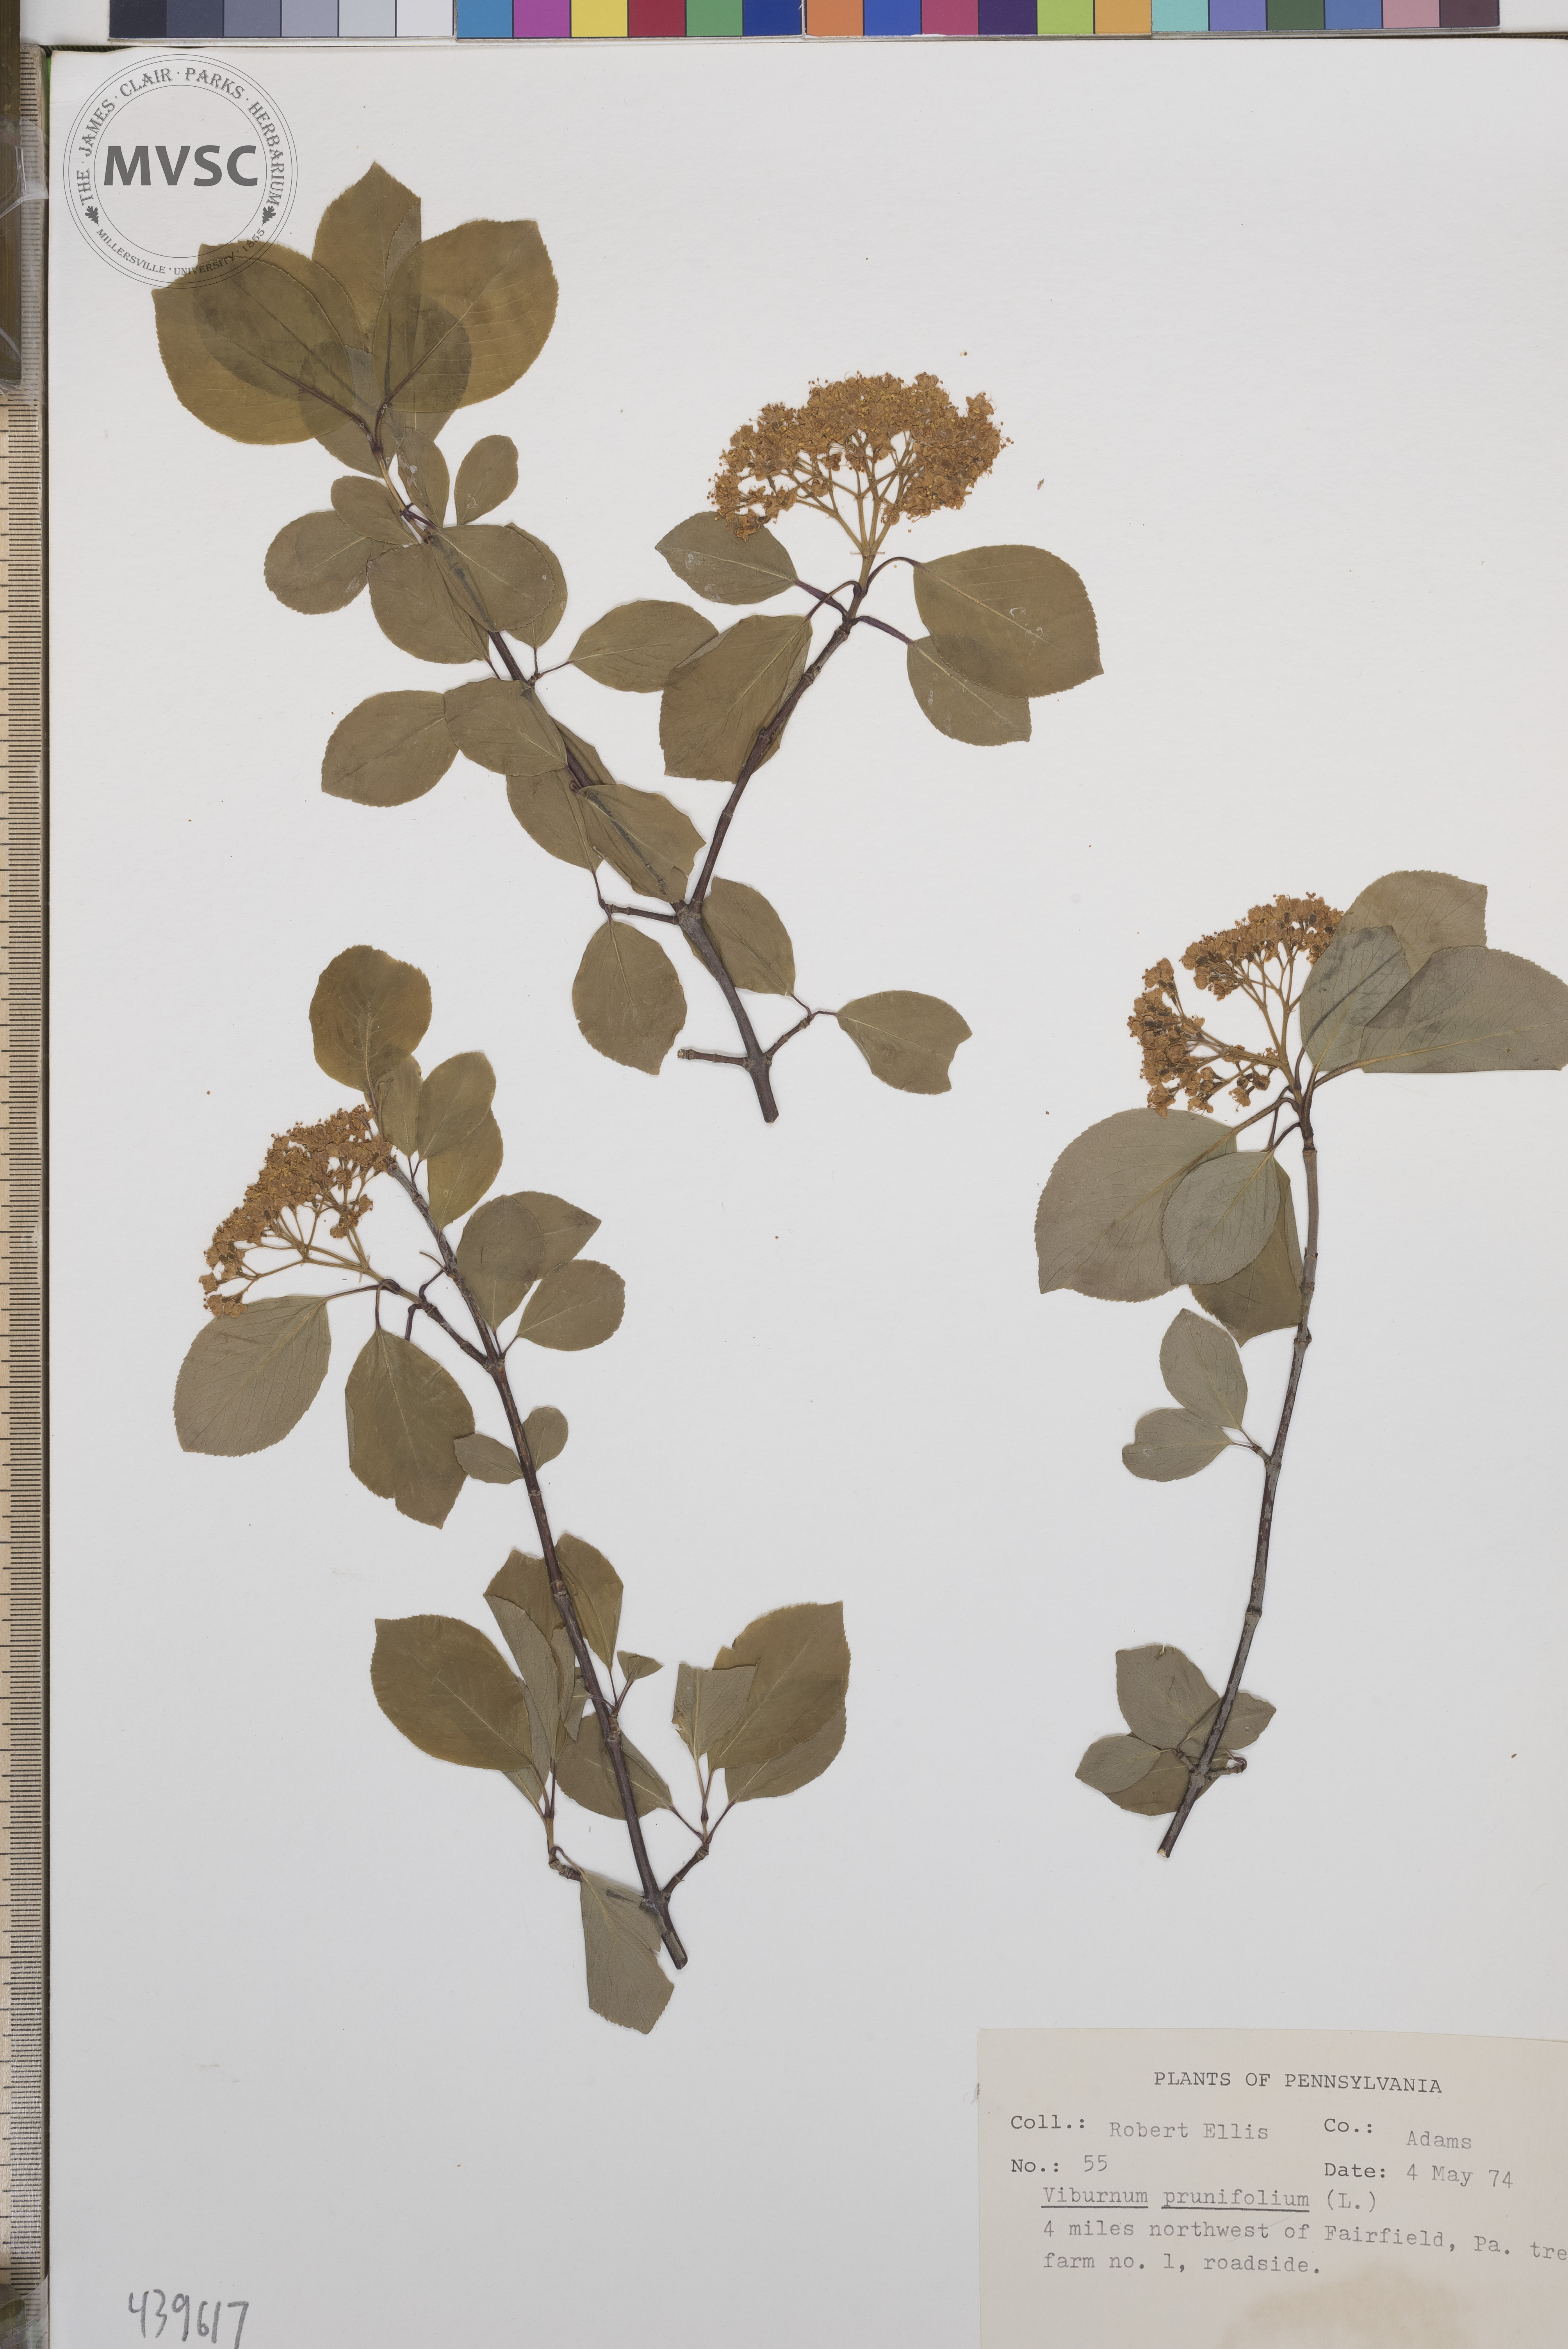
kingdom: Plantae
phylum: Tracheophyta
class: Magnoliopsida
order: Dipsacales
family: Viburnaceae
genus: Viburnum
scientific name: Viburnum prunifolium
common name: Black haw
